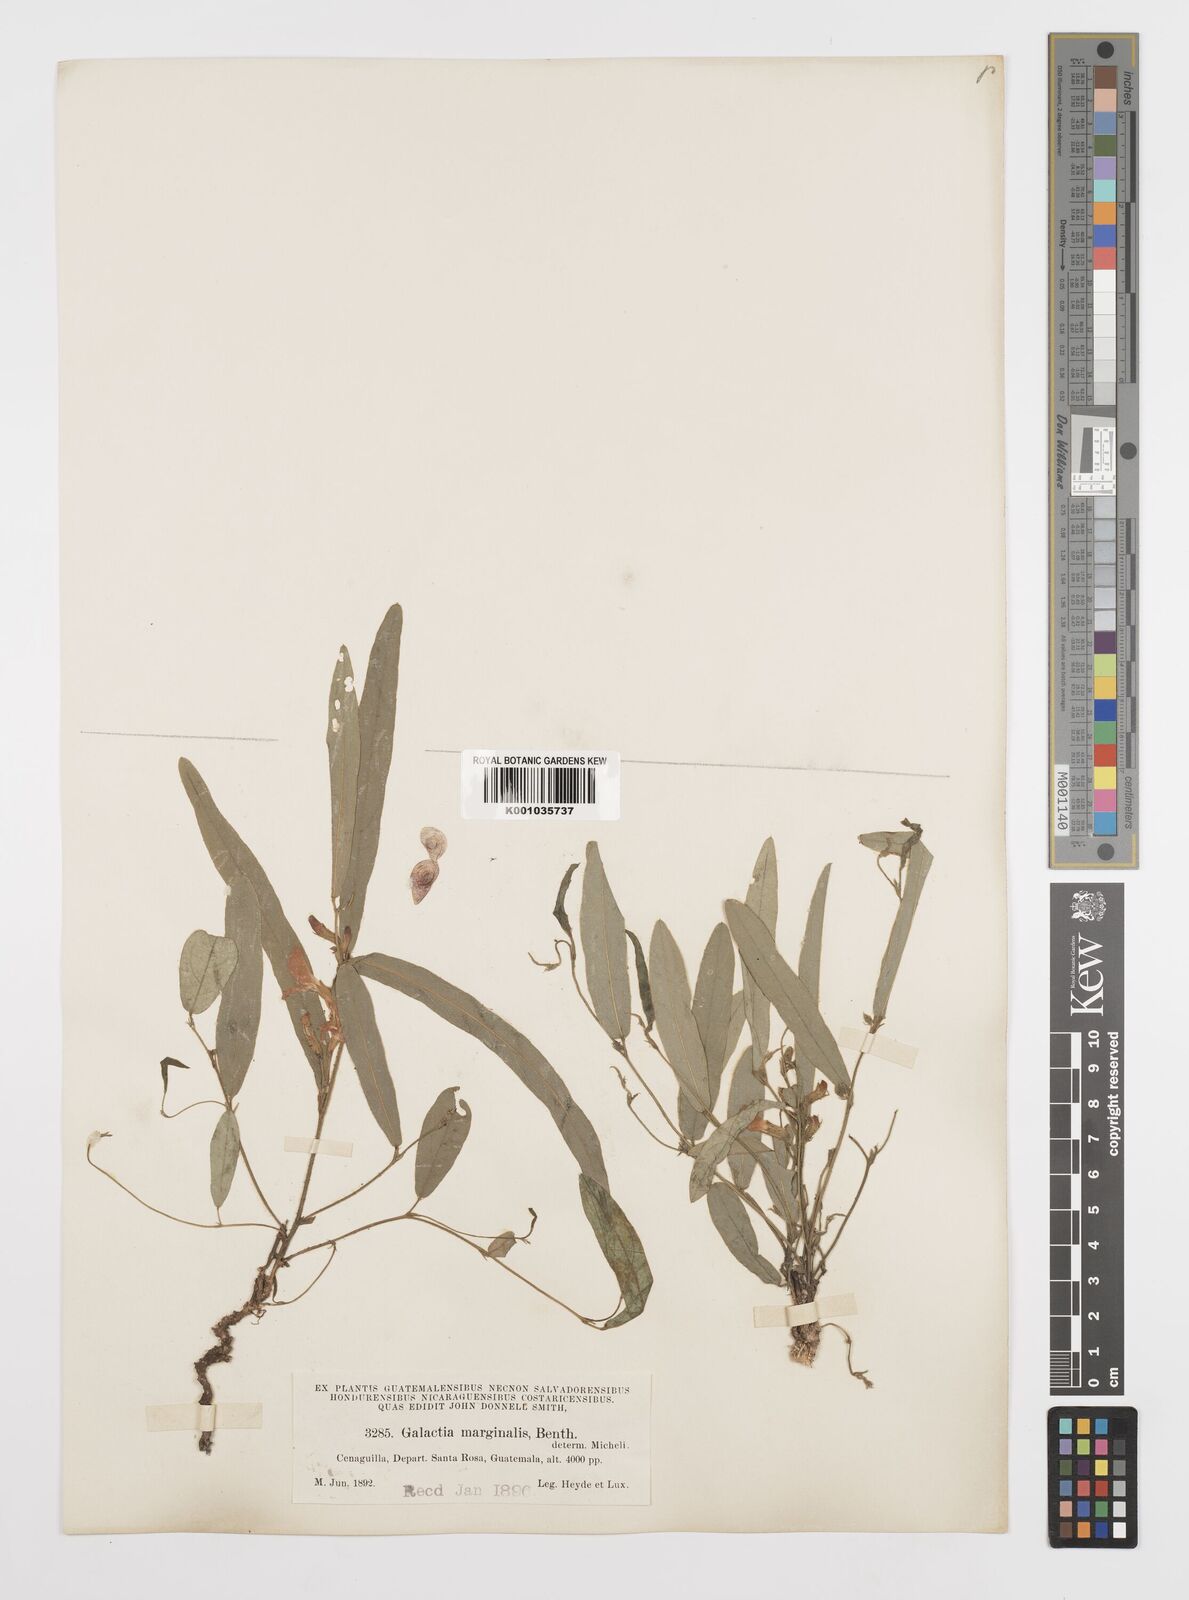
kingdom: Plantae
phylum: Tracheophyta
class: Magnoliopsida
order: Fabales
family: Fabaceae
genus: Cologania
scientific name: Cologania procumbens
